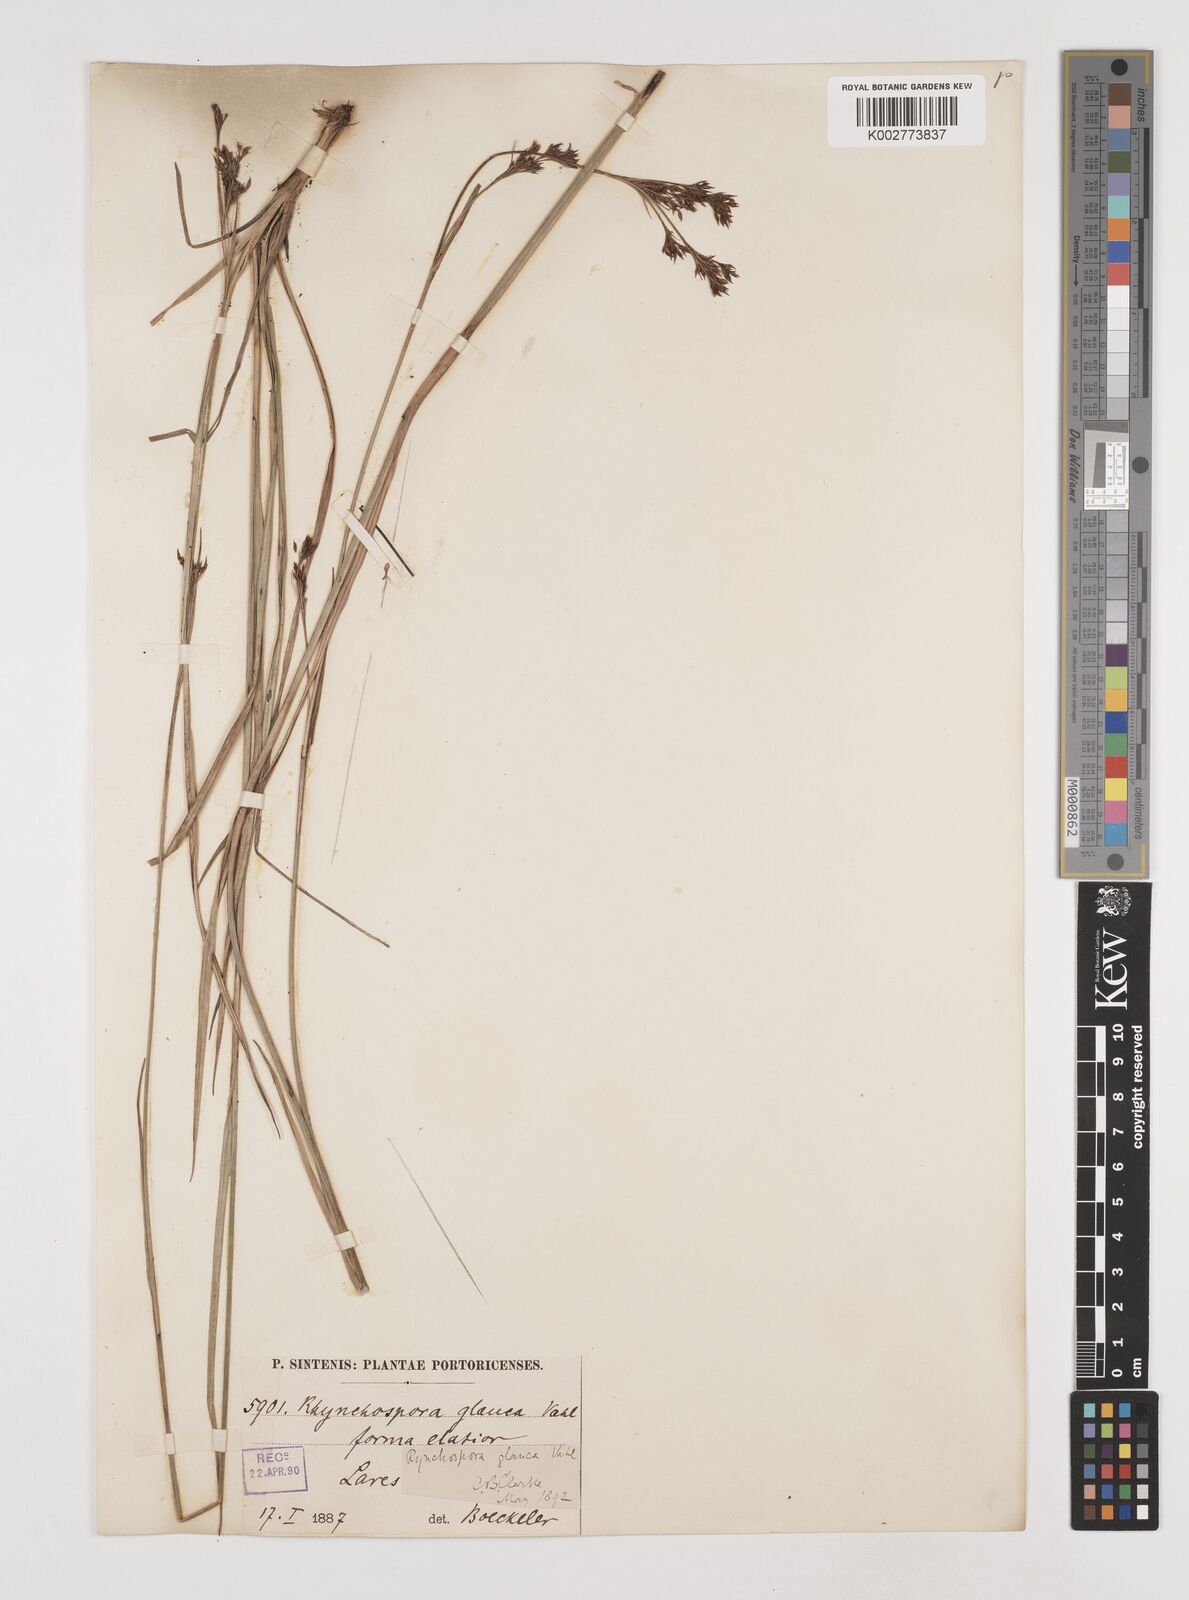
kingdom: Plantae
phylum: Tracheophyta
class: Liliopsida
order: Poales
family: Cyperaceae
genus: Rhynchospora
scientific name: Rhynchospora rugosa
